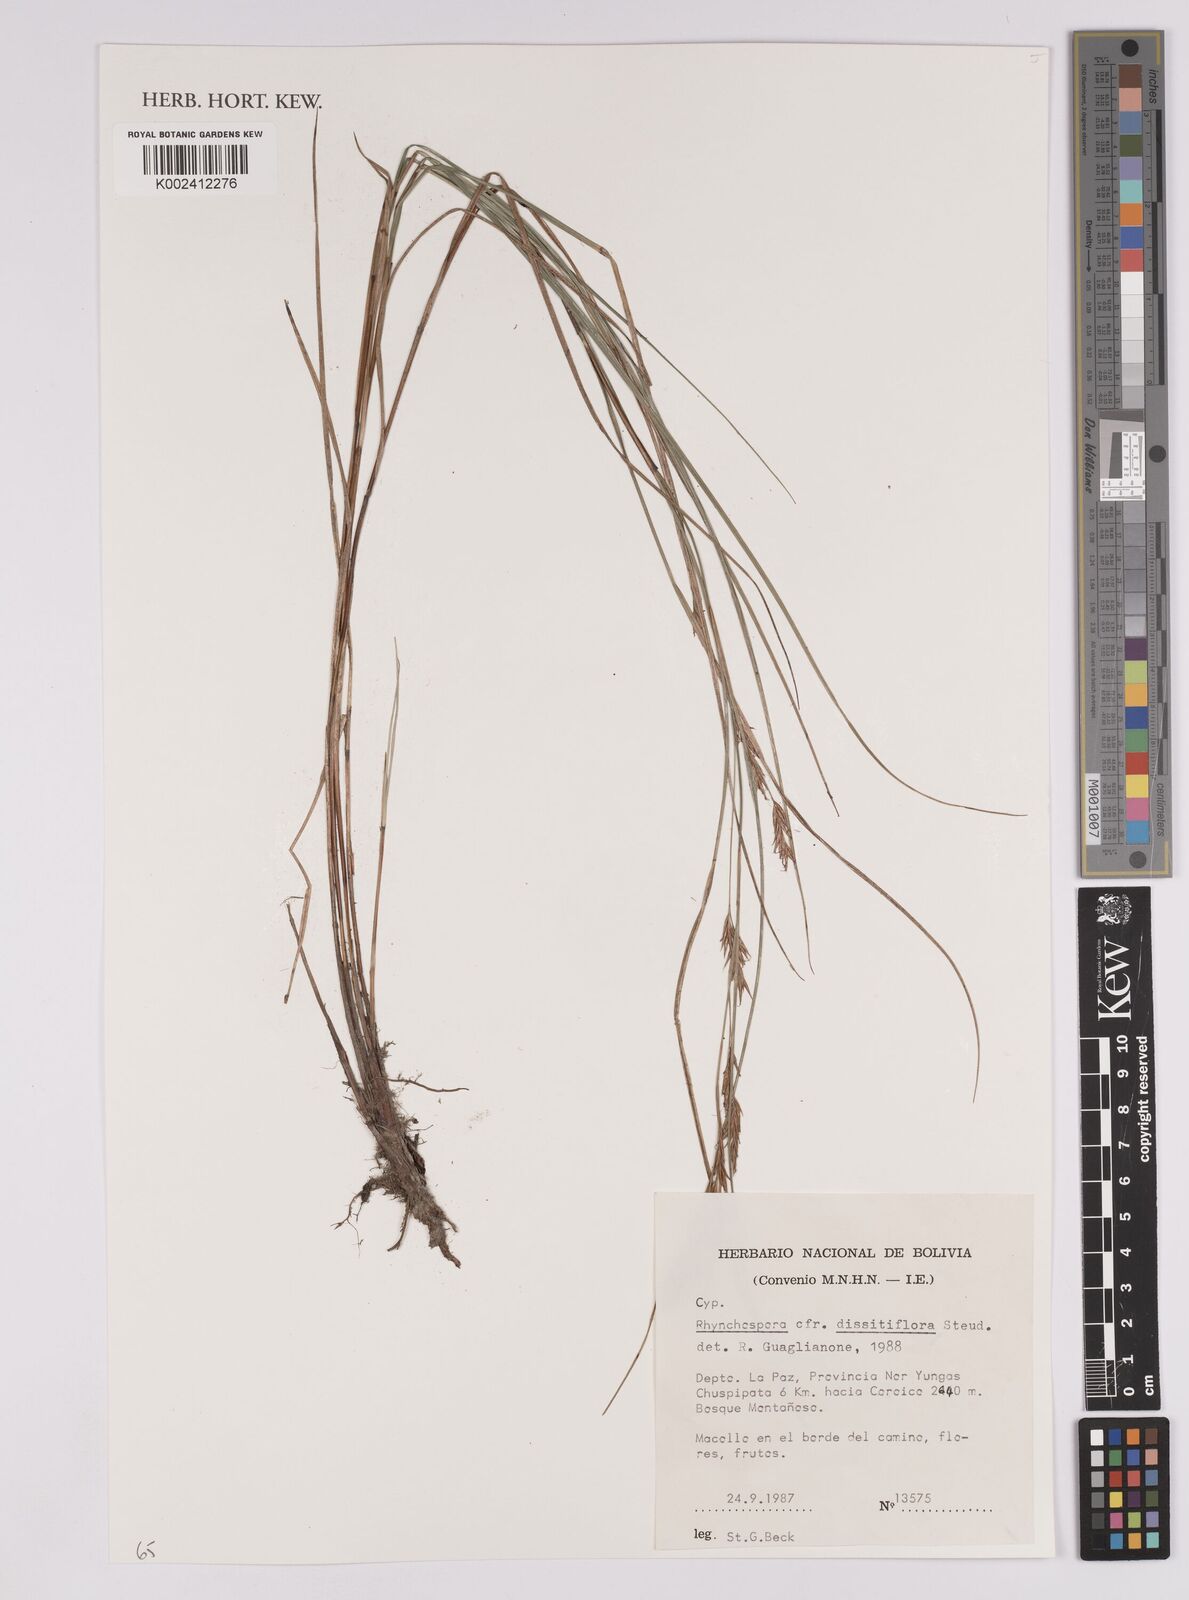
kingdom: Plantae
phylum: Tracheophyta
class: Liliopsida
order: Poales
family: Cyperaceae
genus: Rhynchospora
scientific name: Rhynchospora dissitiflora
